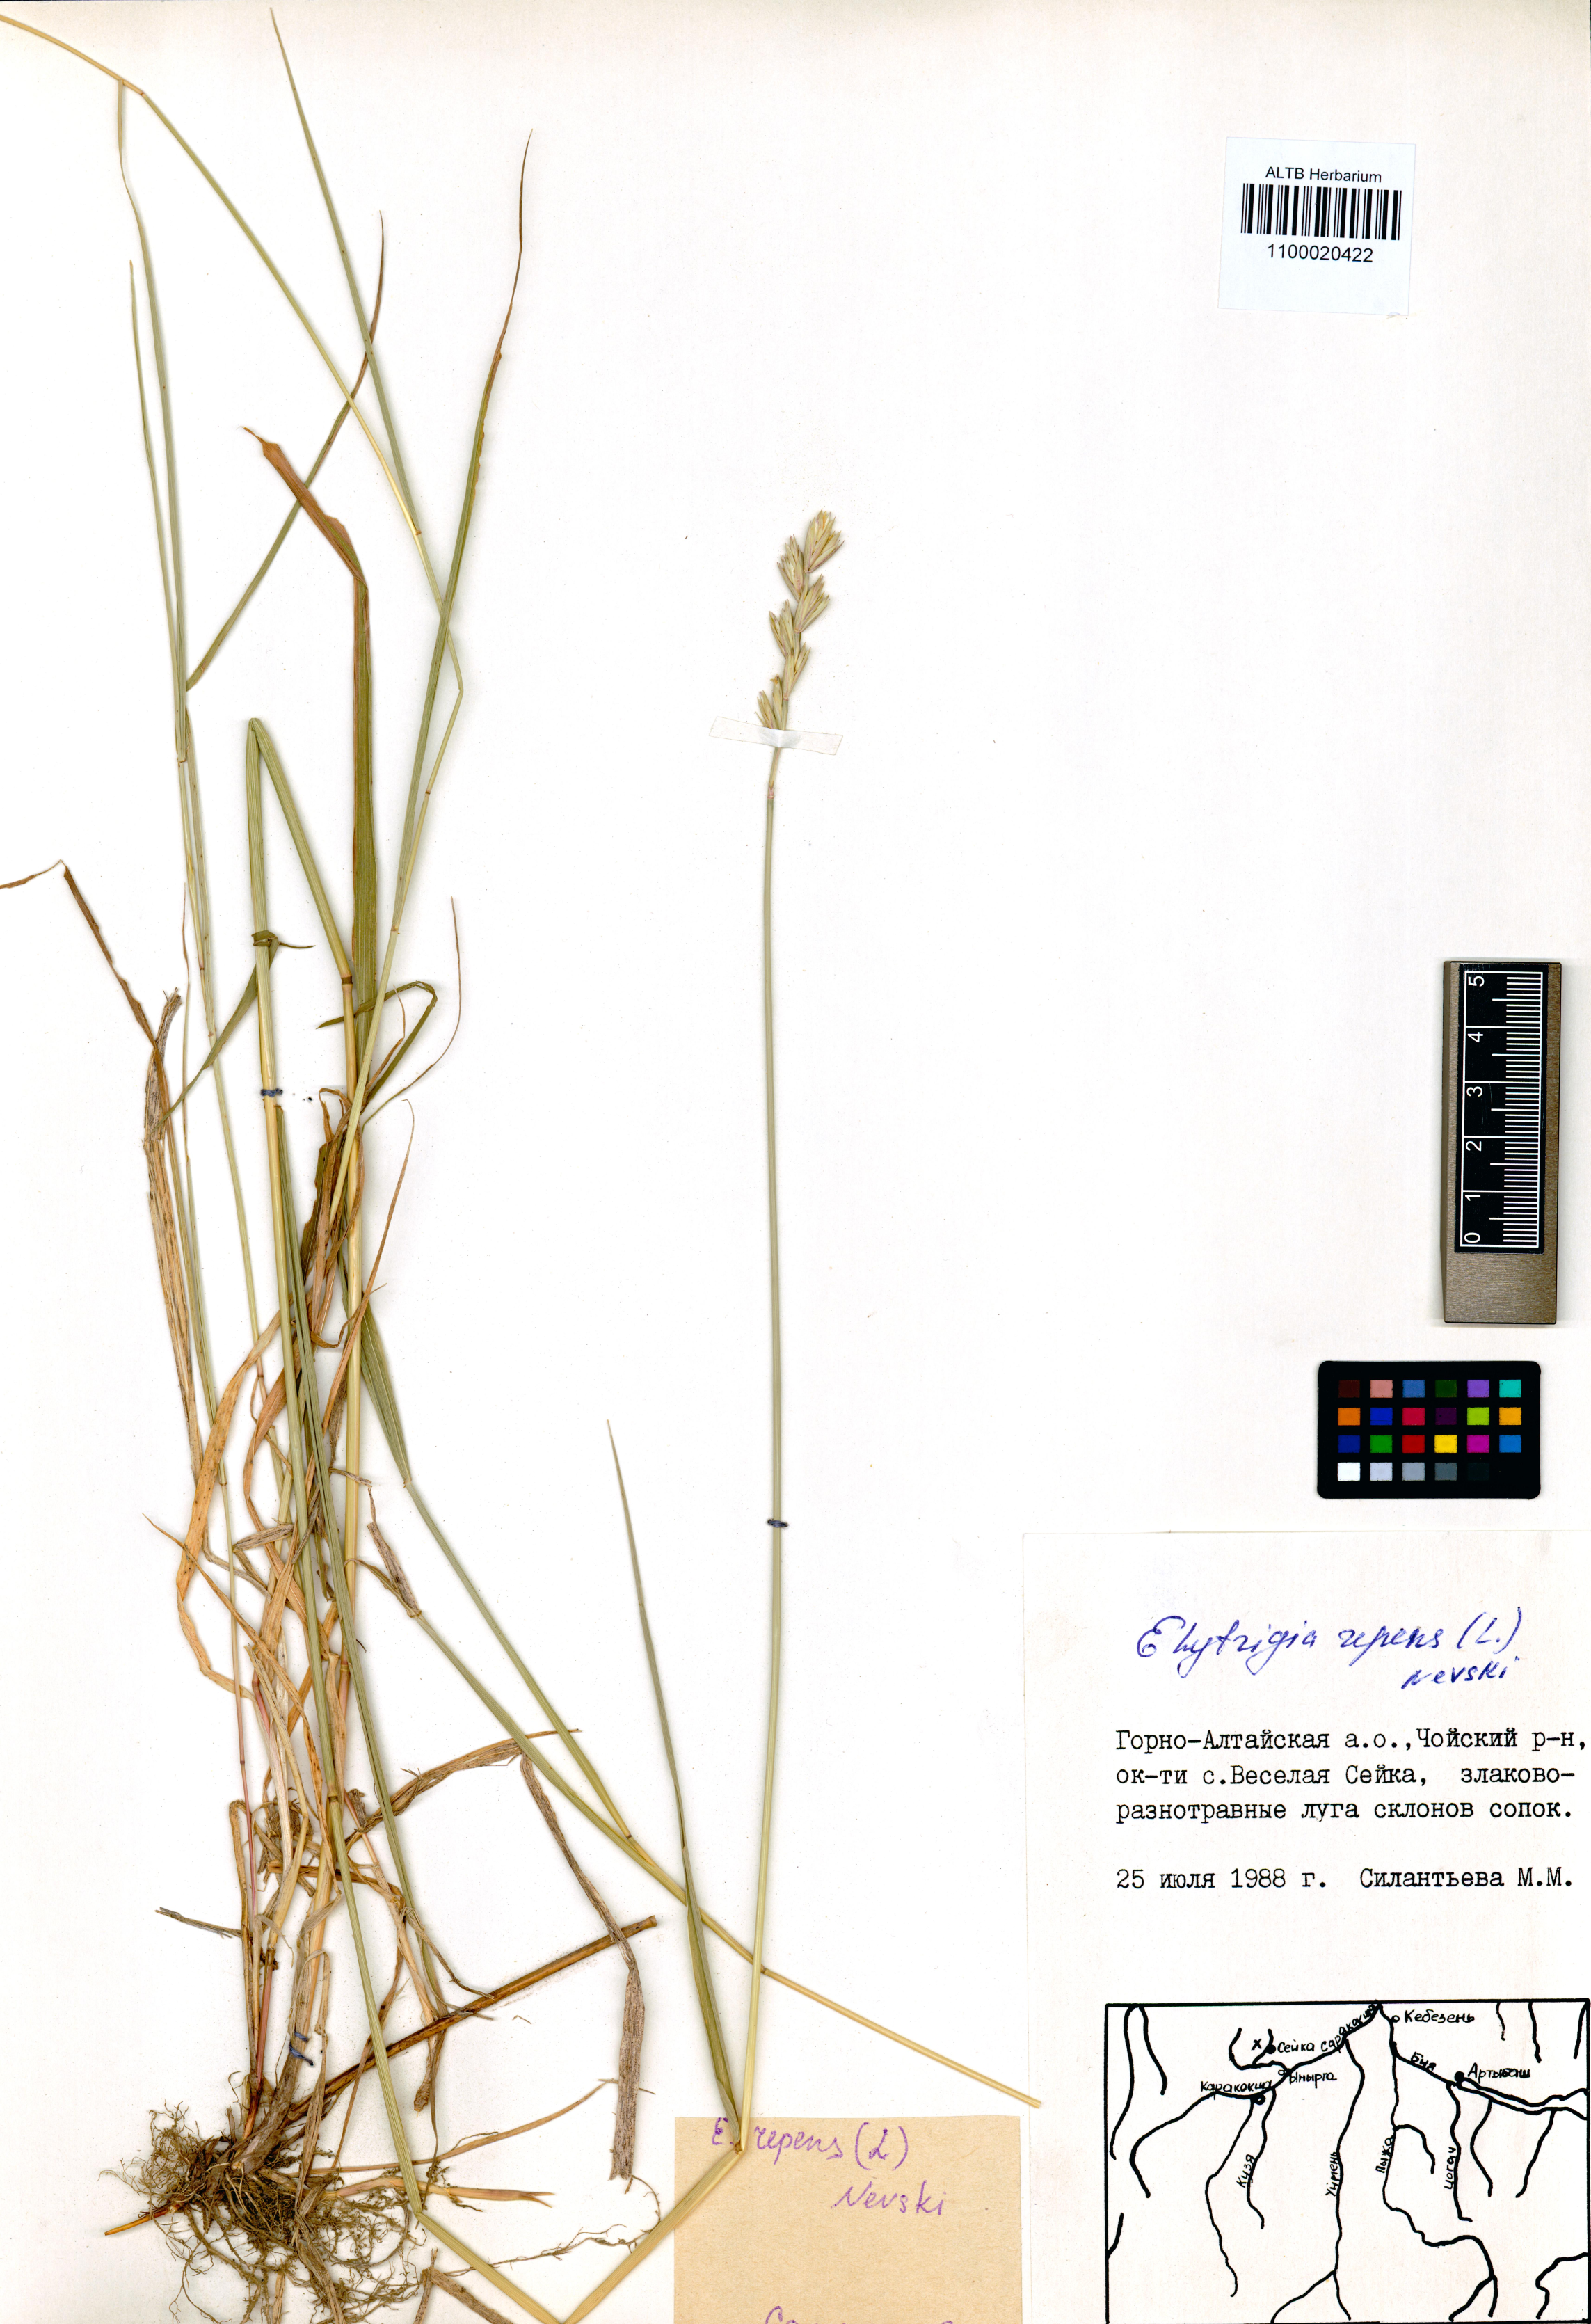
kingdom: Plantae
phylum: Tracheophyta
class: Liliopsida
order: Poales
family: Poaceae
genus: Elymus
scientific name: Elymus repens
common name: Quackgrass
